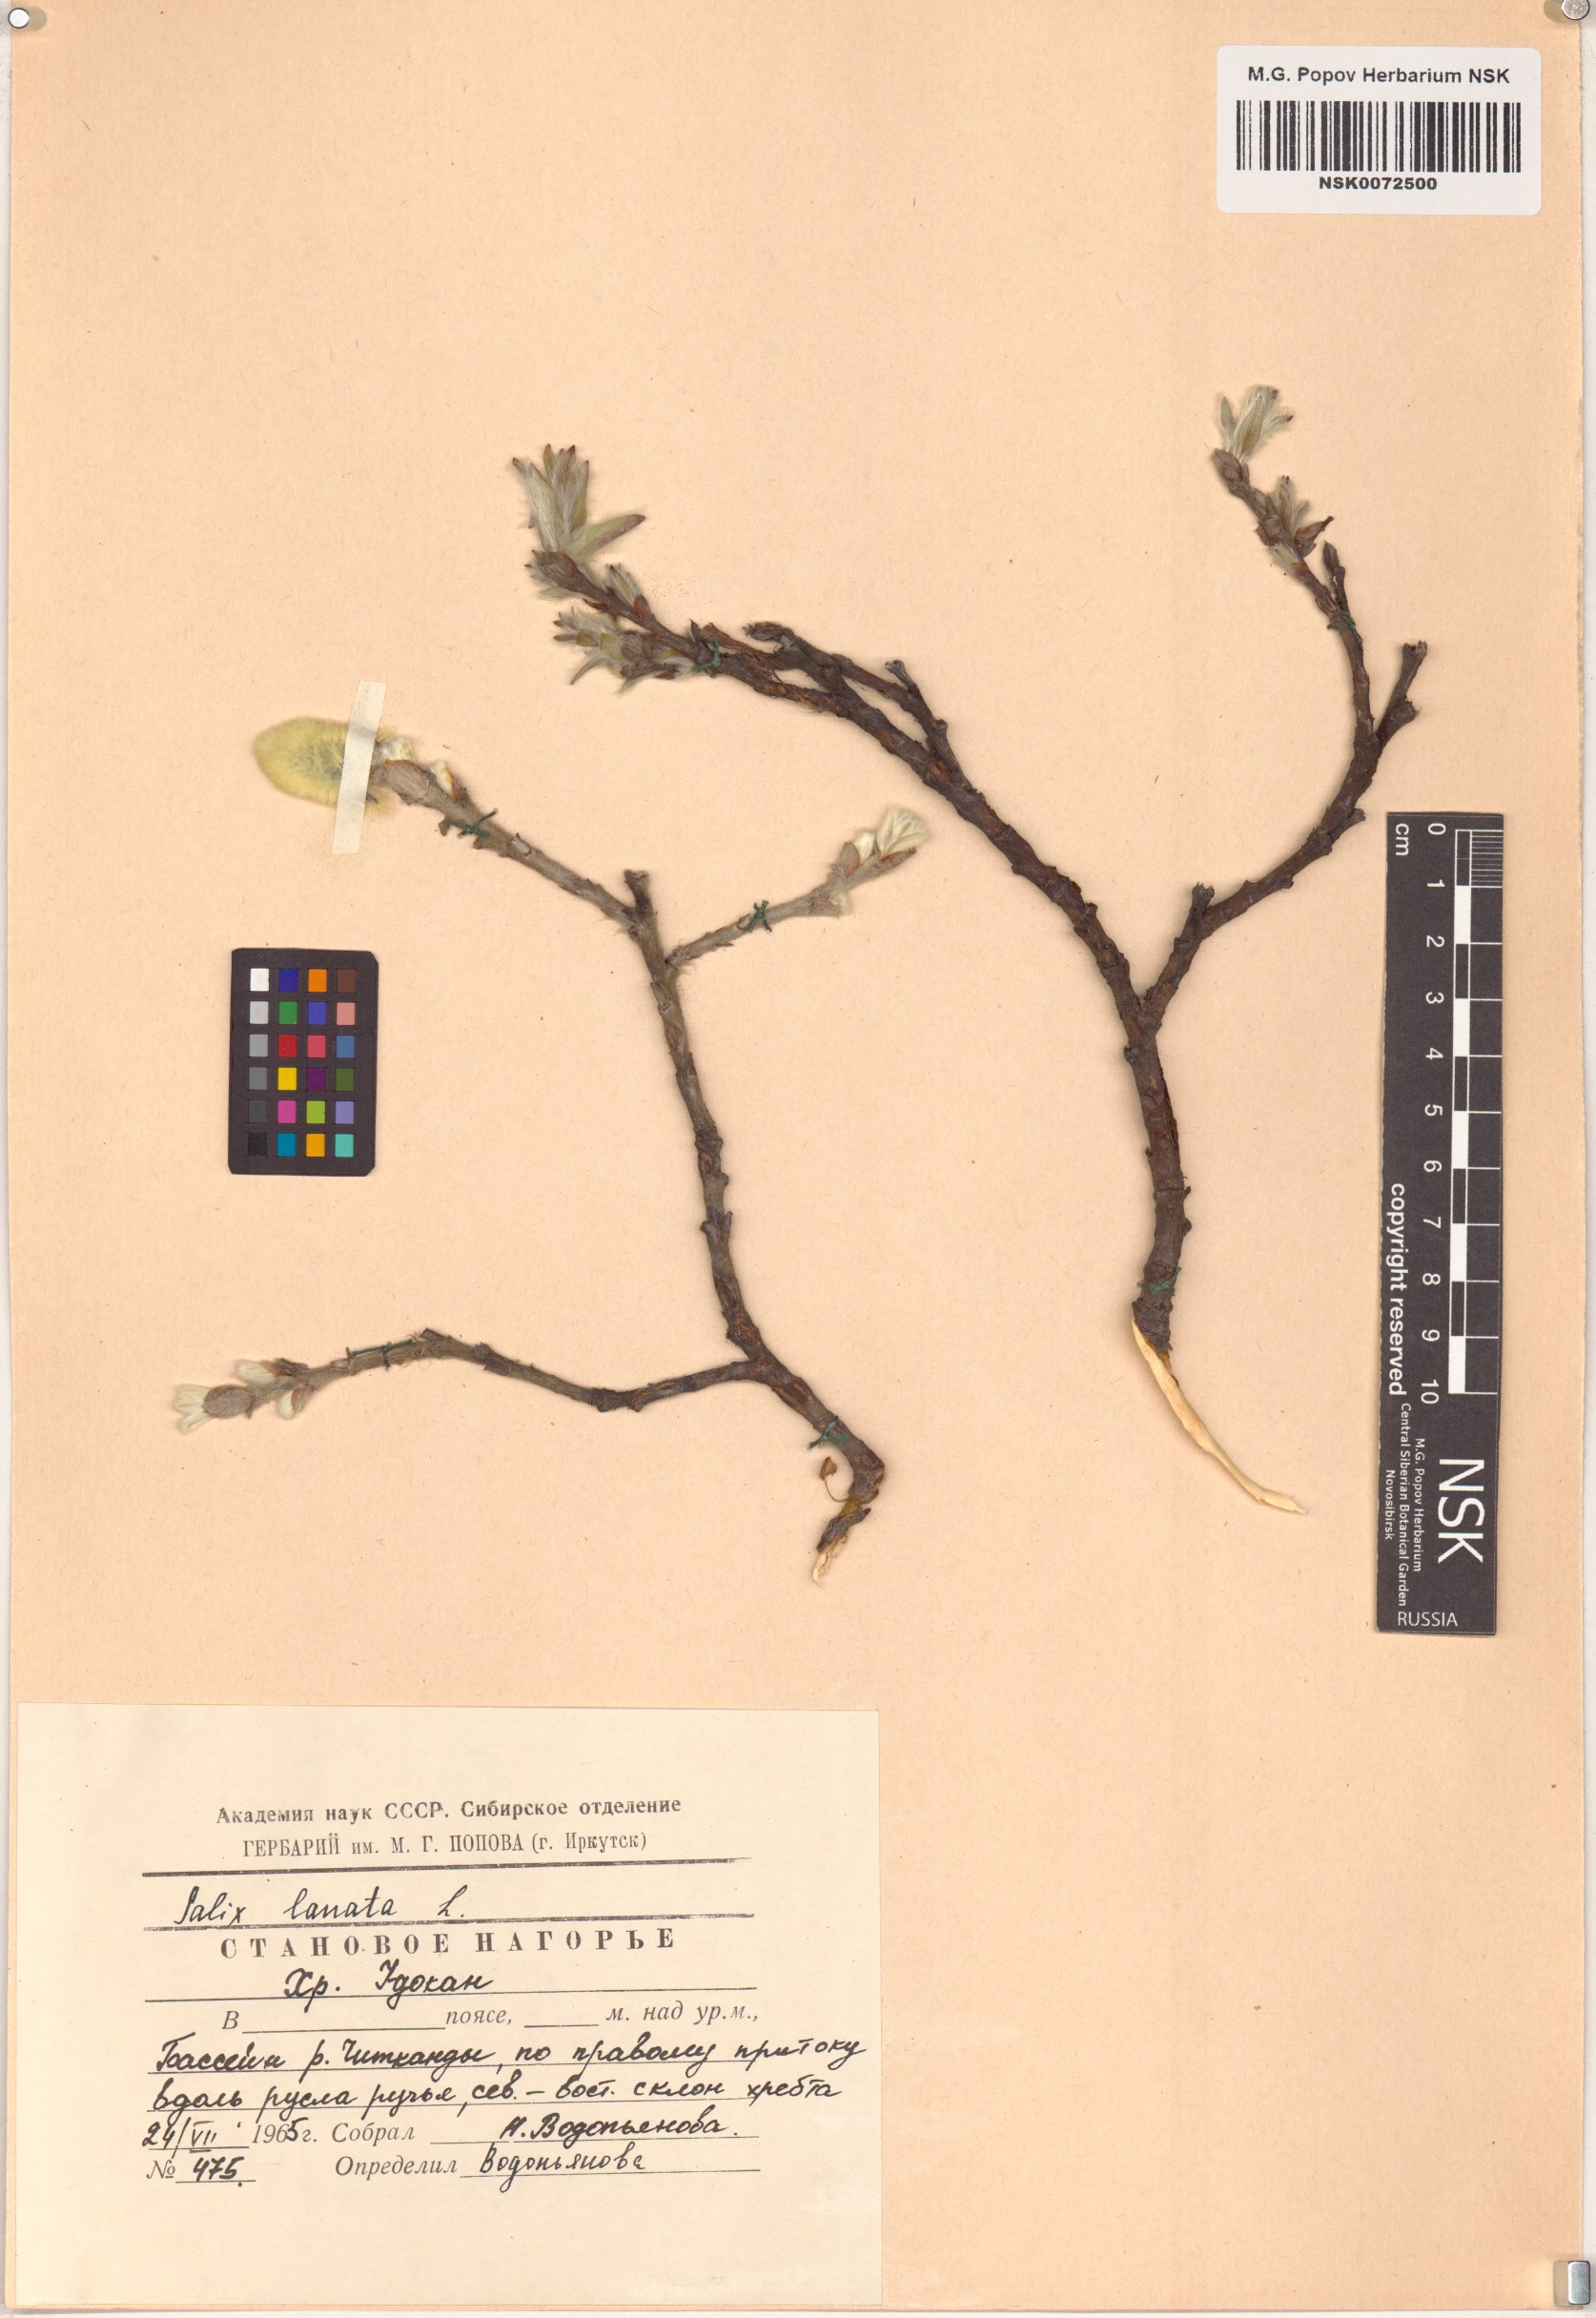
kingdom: Plantae
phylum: Tracheophyta
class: Magnoliopsida
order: Malpighiales
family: Salicaceae
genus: Salix
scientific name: Salix lanata
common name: Woolly willow
